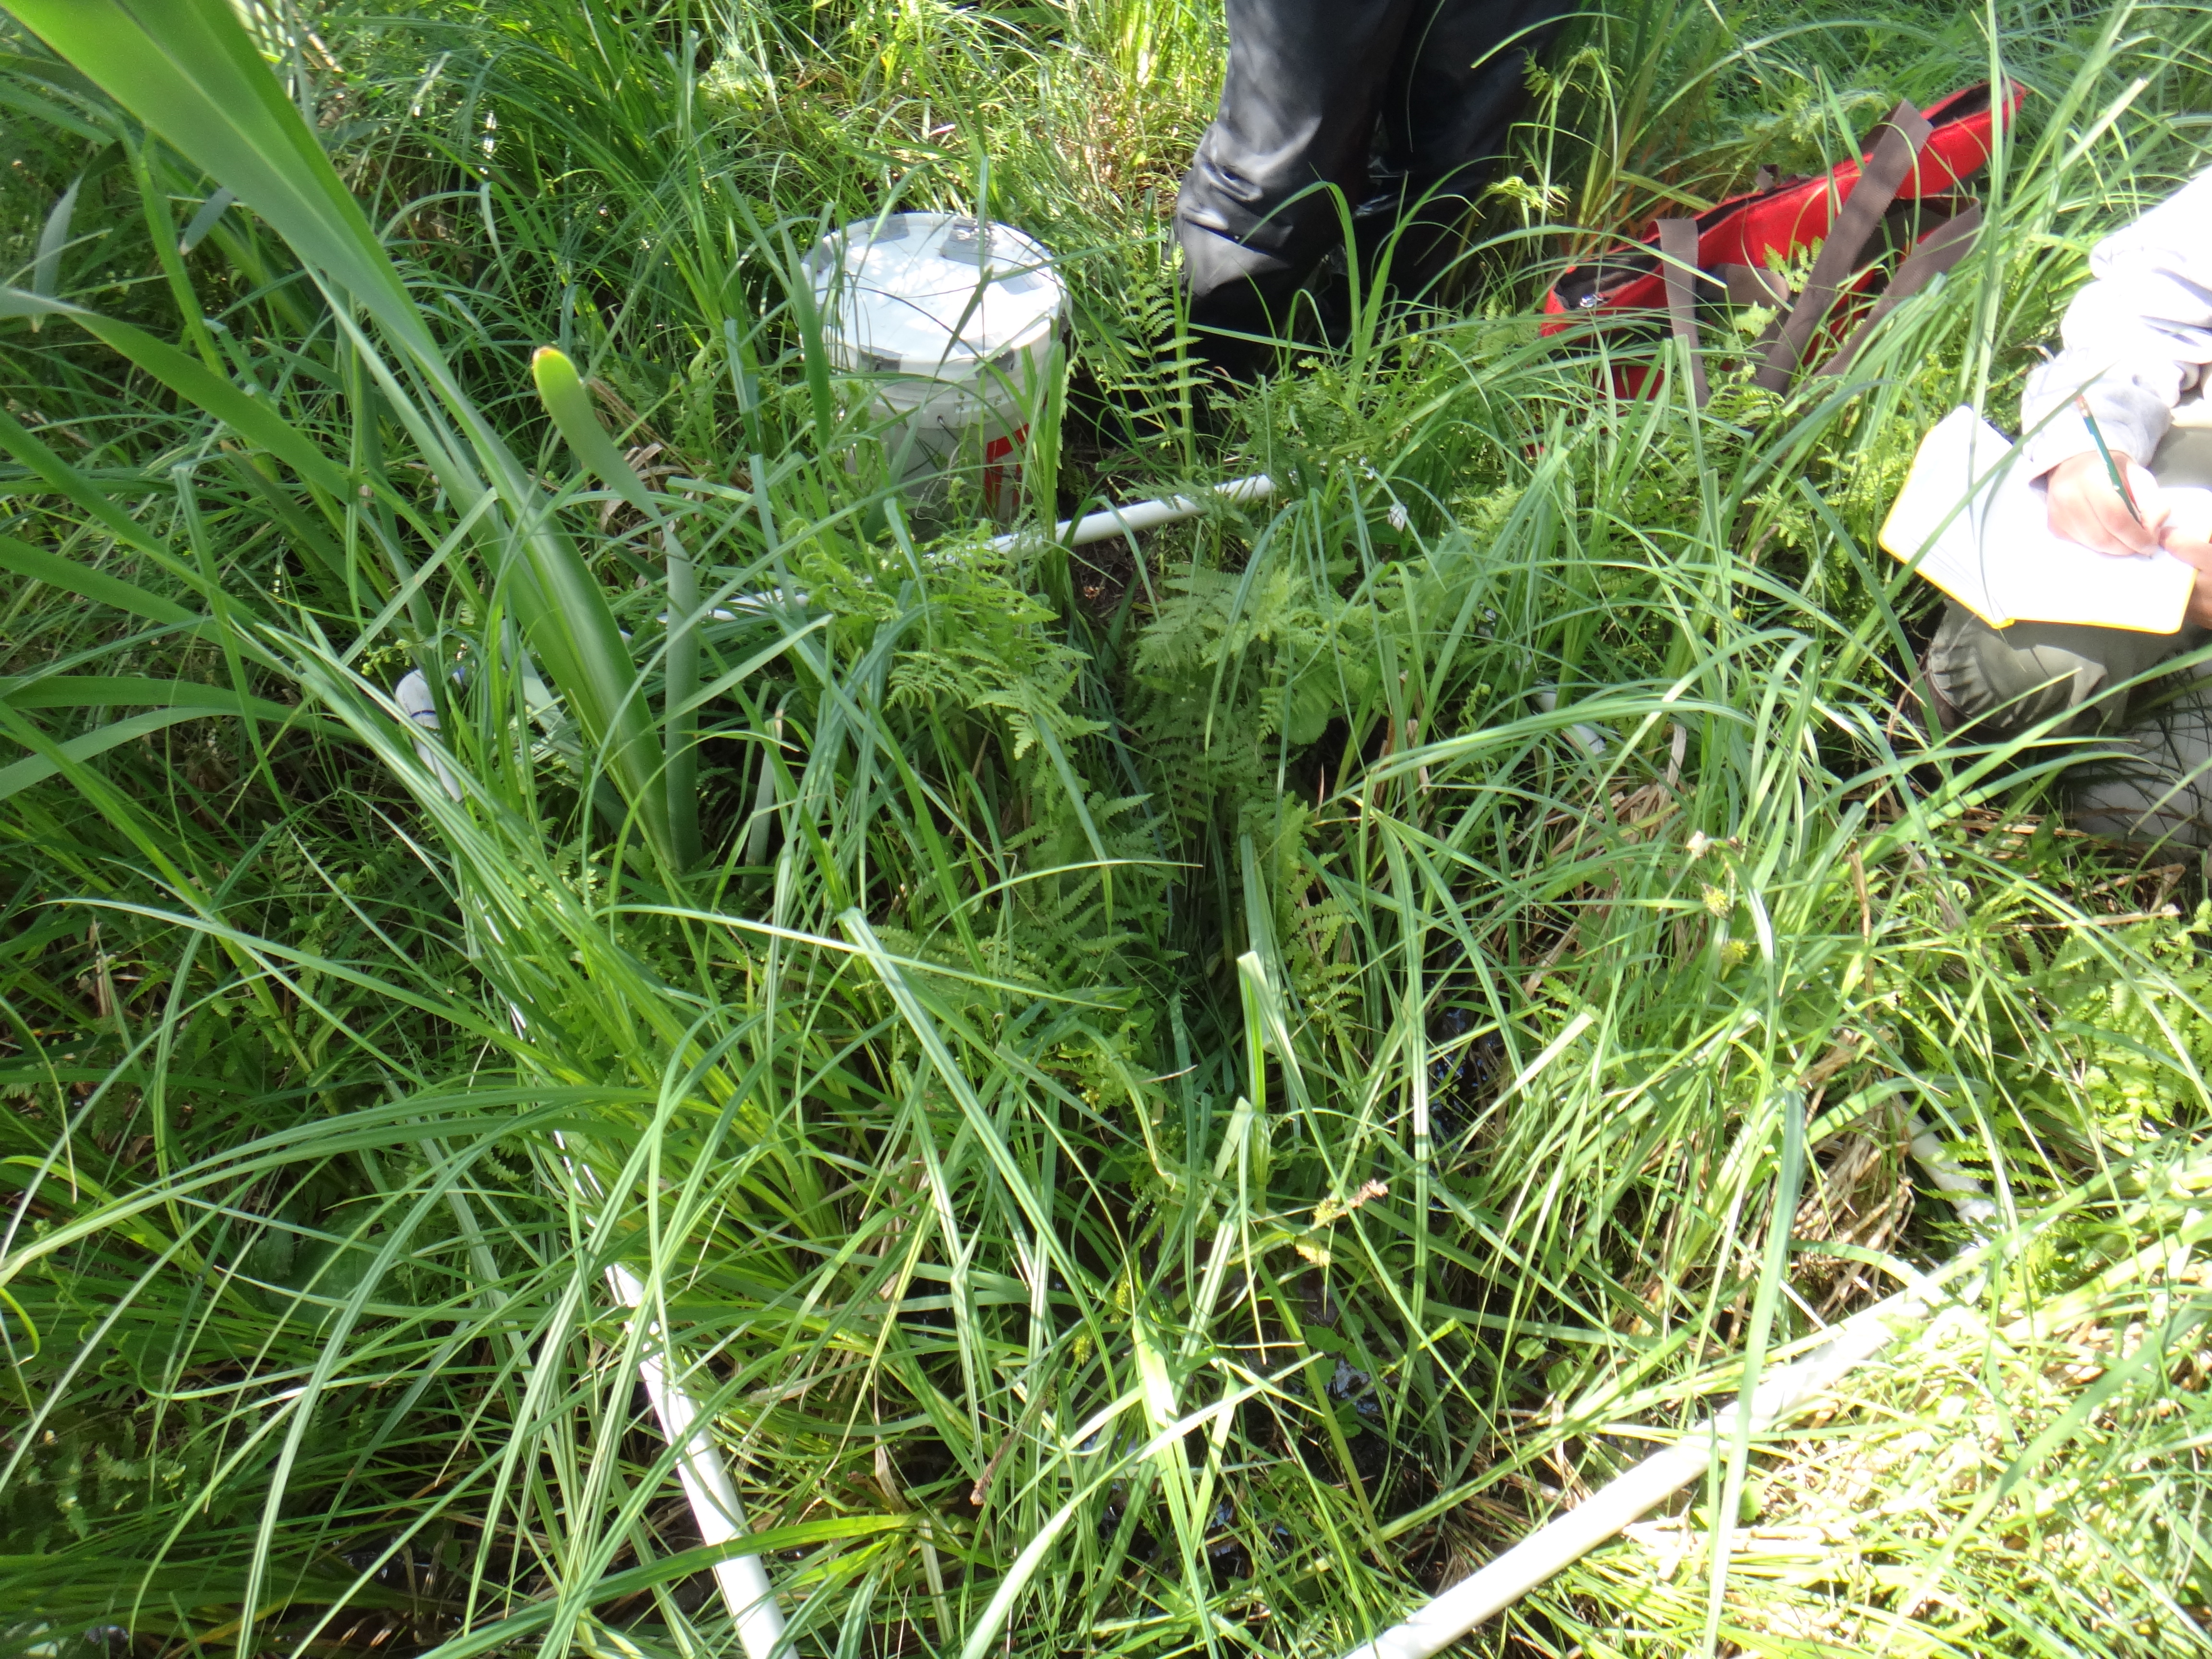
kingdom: Plantae
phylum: Tracheophyta
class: Magnoliopsida
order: Ranunculales
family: Ranunculaceae
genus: Caltha
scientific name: Caltha palustris
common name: Marsh marigold
